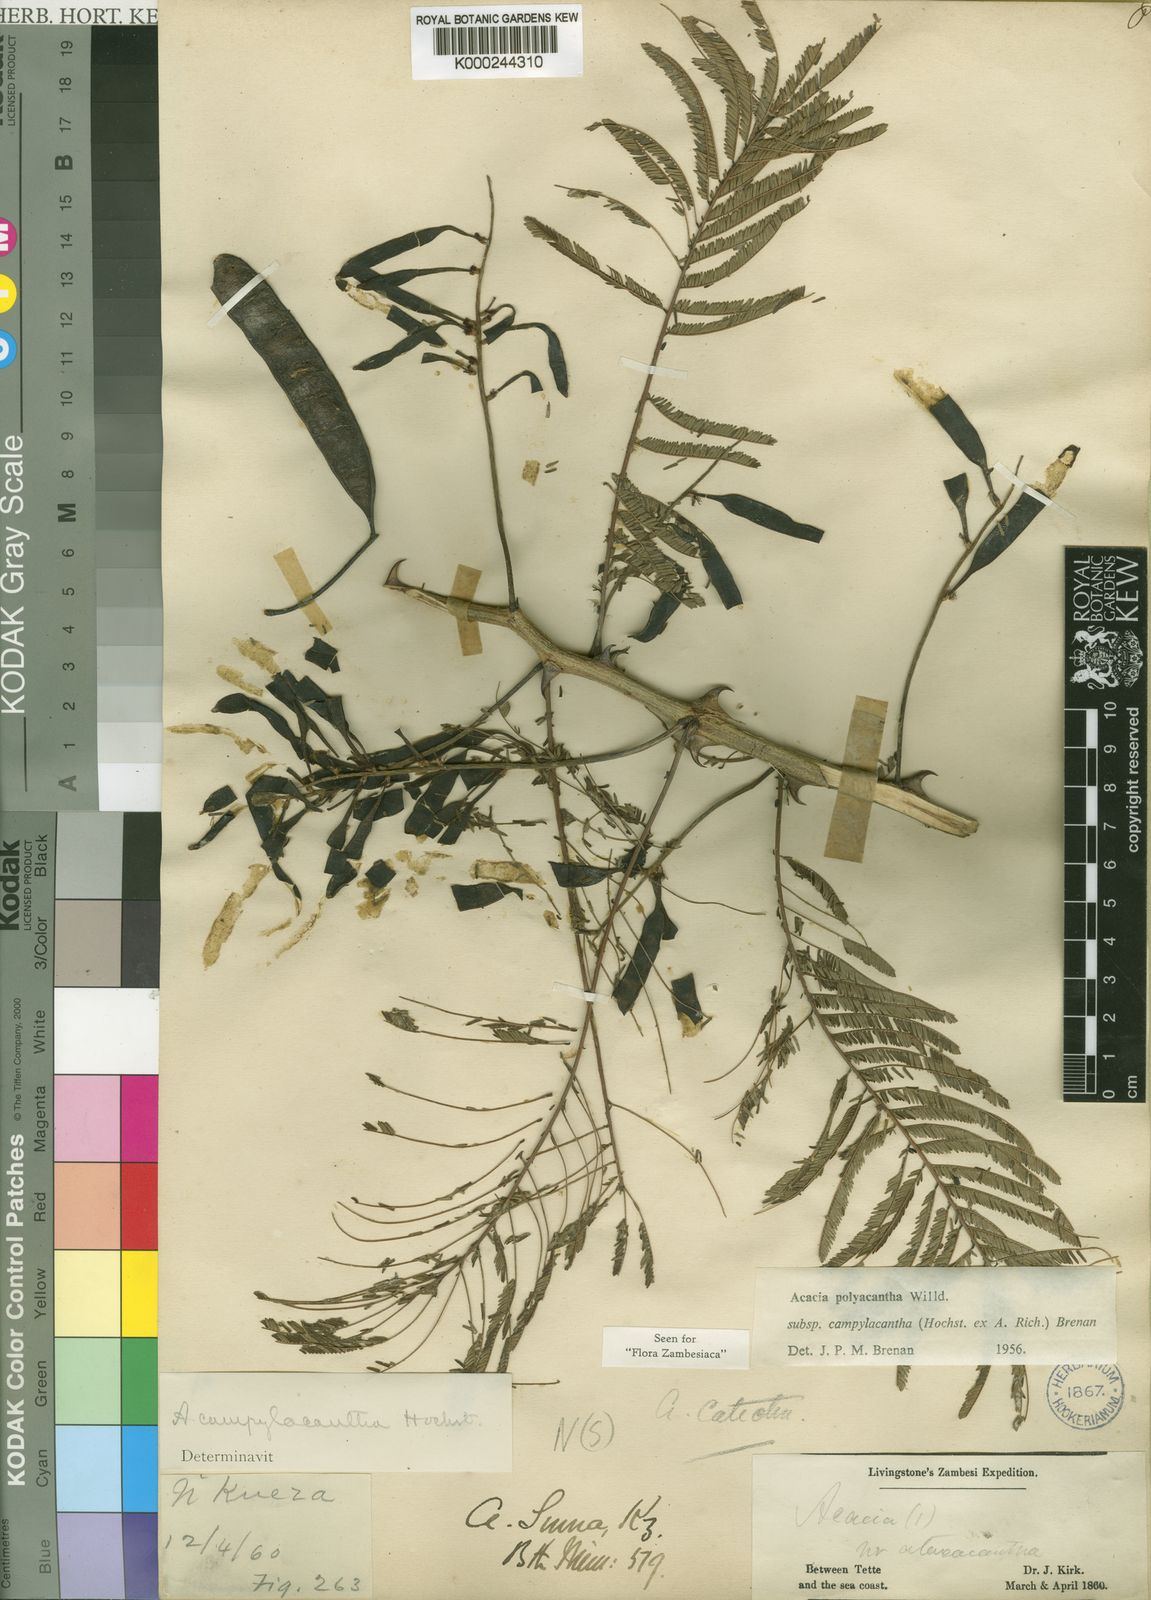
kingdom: Plantae
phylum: Tracheophyta
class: Magnoliopsida
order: Fabales
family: Fabaceae
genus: Senegalia
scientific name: Senegalia polyacantha
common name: Whitethorn
